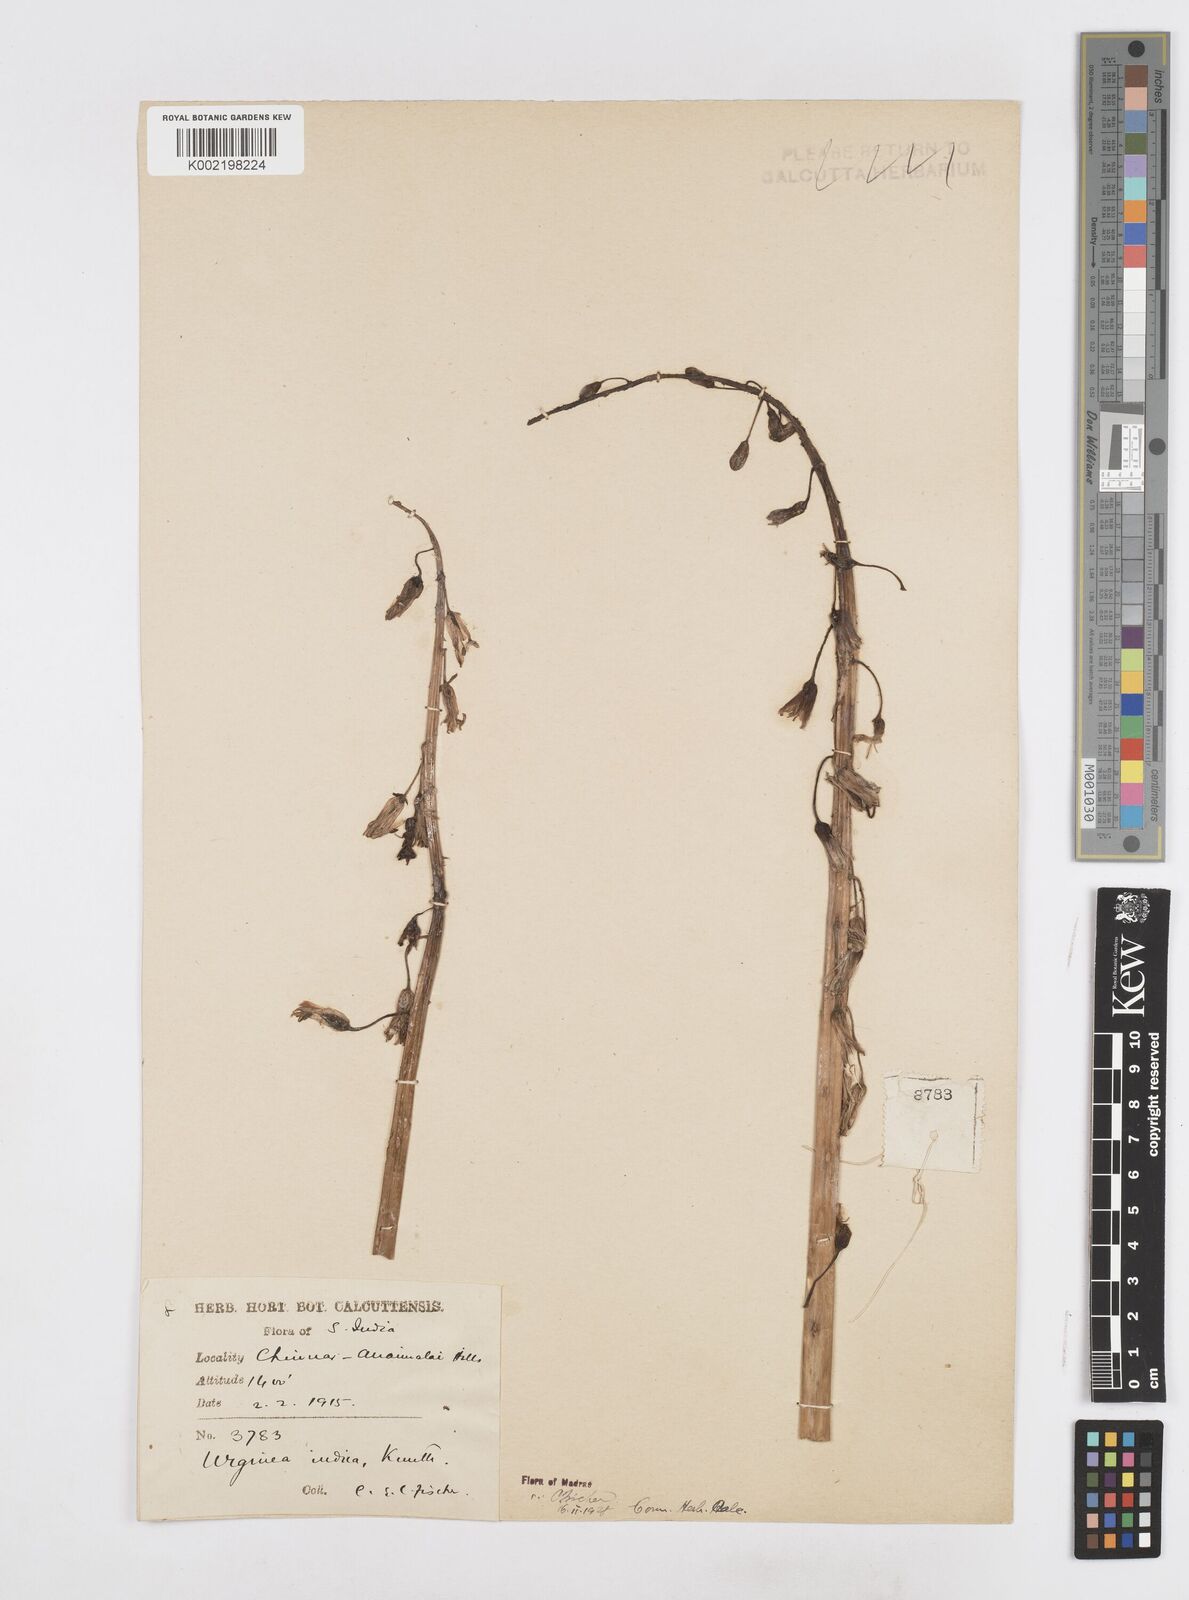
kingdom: Plantae
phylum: Tracheophyta
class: Liliopsida
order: Asparagales
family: Asparagaceae
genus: Drimia
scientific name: Drimia indica
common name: Indian-squill
